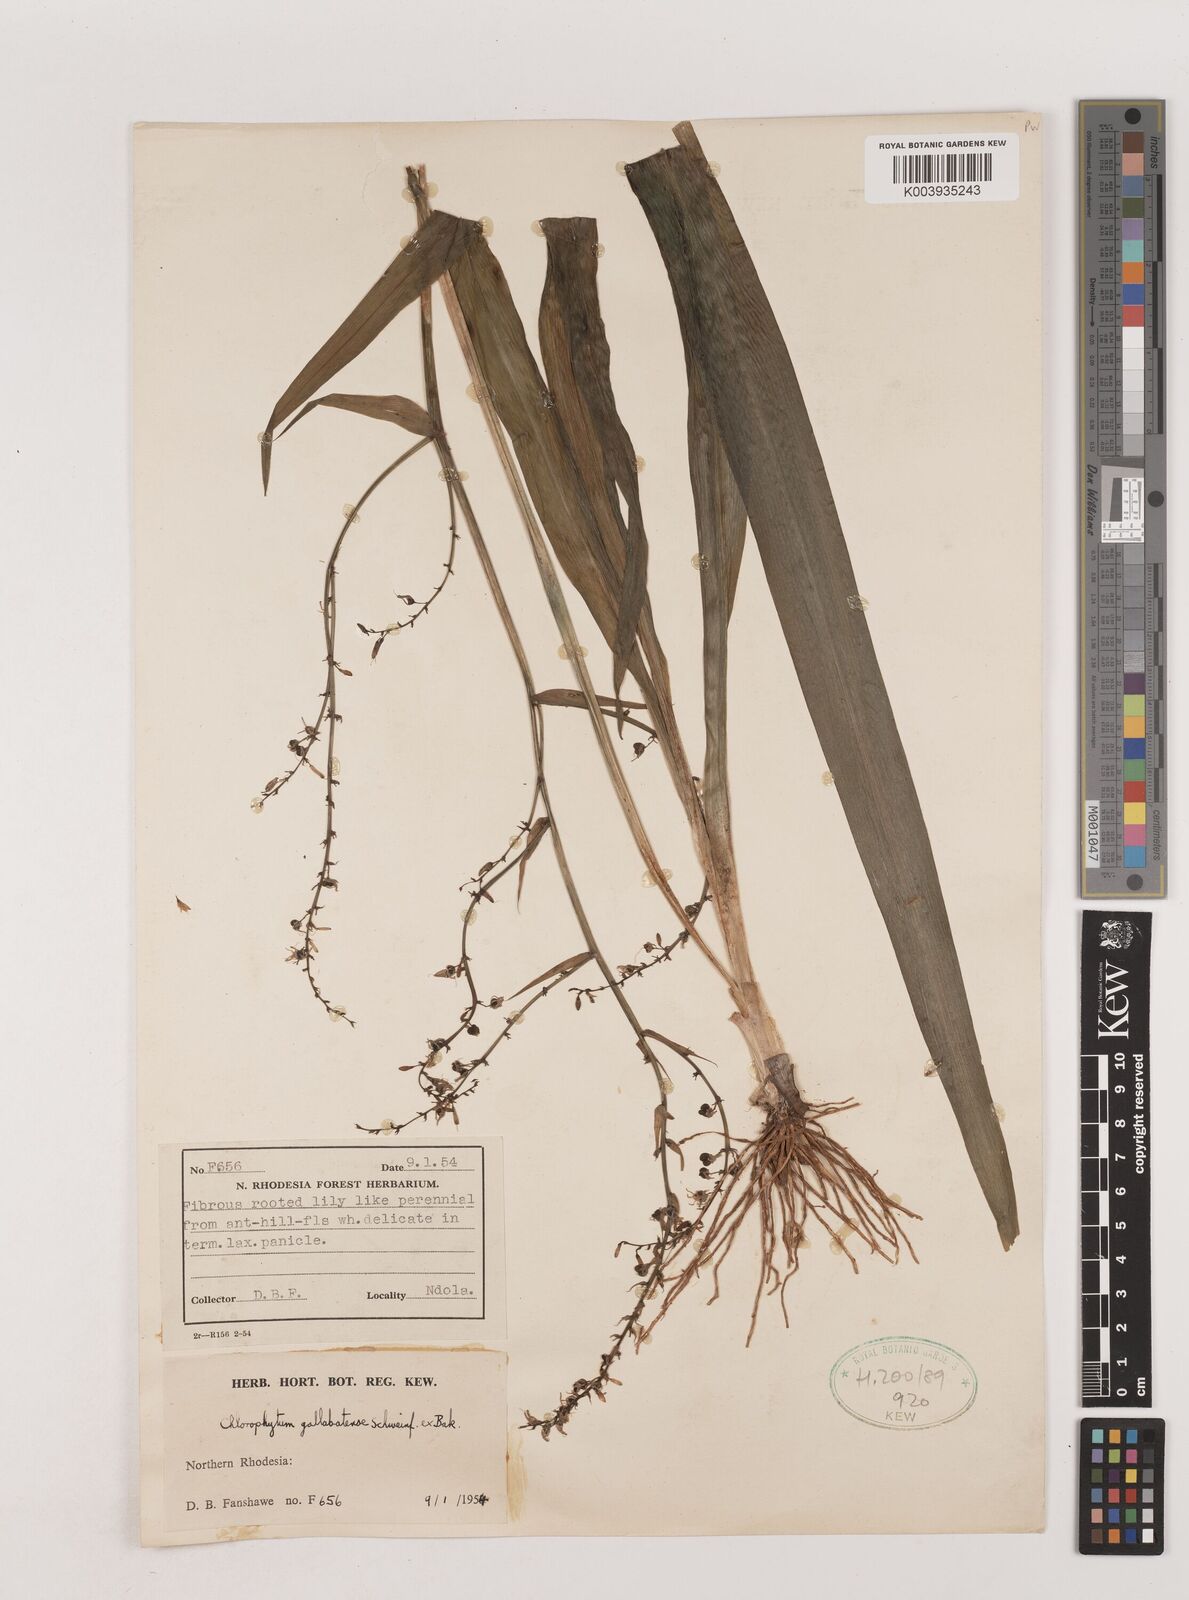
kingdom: Plantae
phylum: Tracheophyta
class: Liliopsida
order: Asparagales
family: Asparagaceae
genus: Chlorophytum
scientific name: Chlorophytum gallabatense
